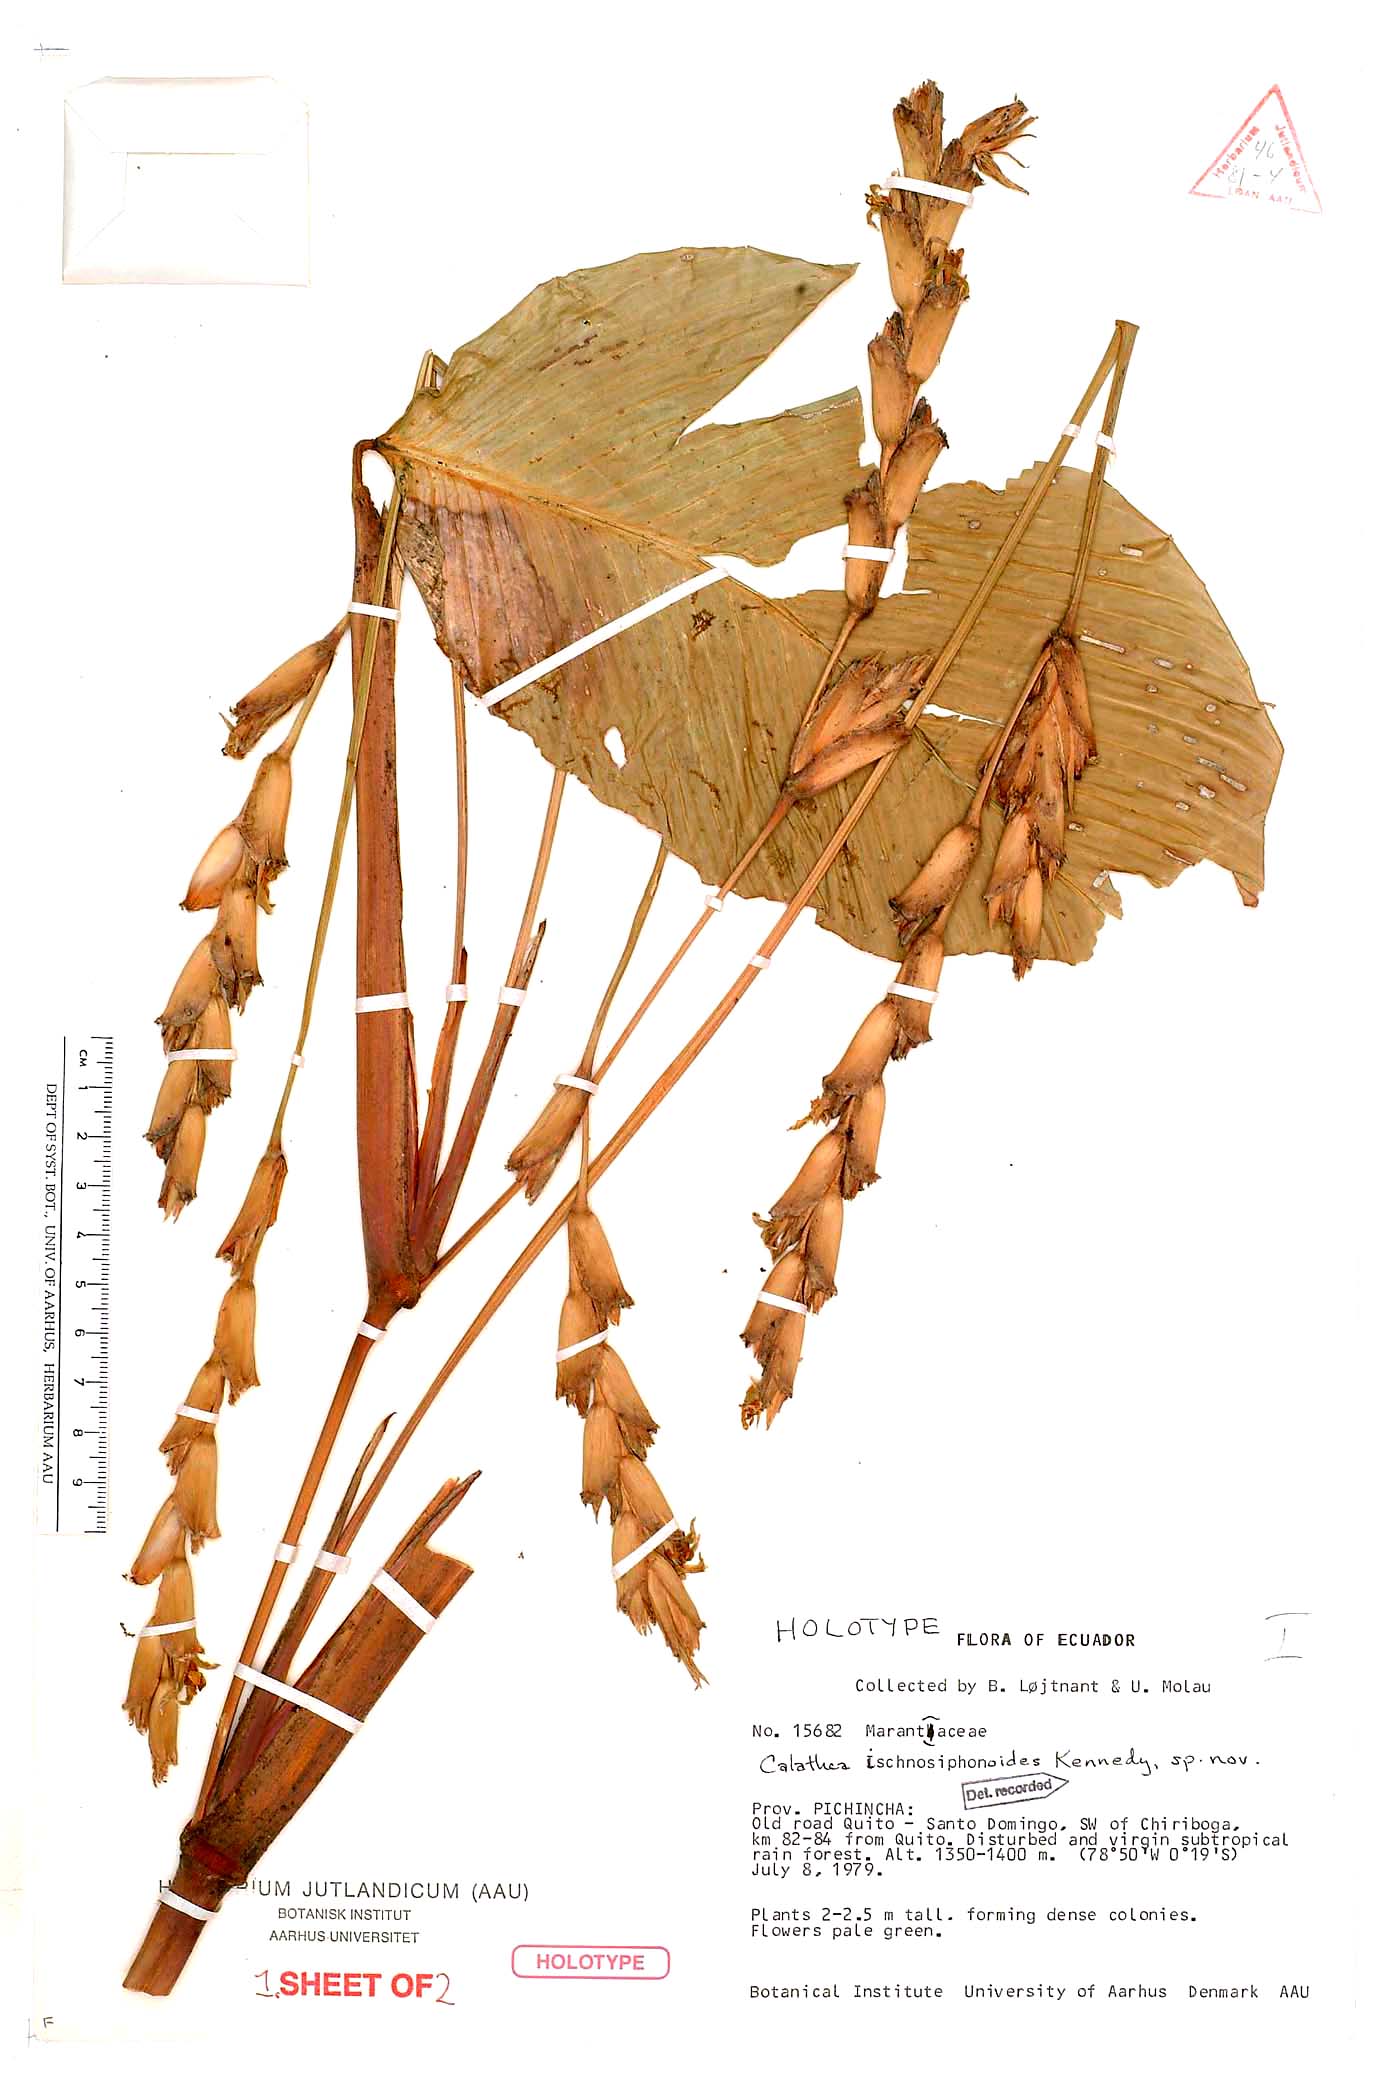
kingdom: Plantae
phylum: Tracheophyta
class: Liliopsida
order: Zingiberales
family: Marantaceae
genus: Calathea
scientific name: Calathea ischnosiphonoides
